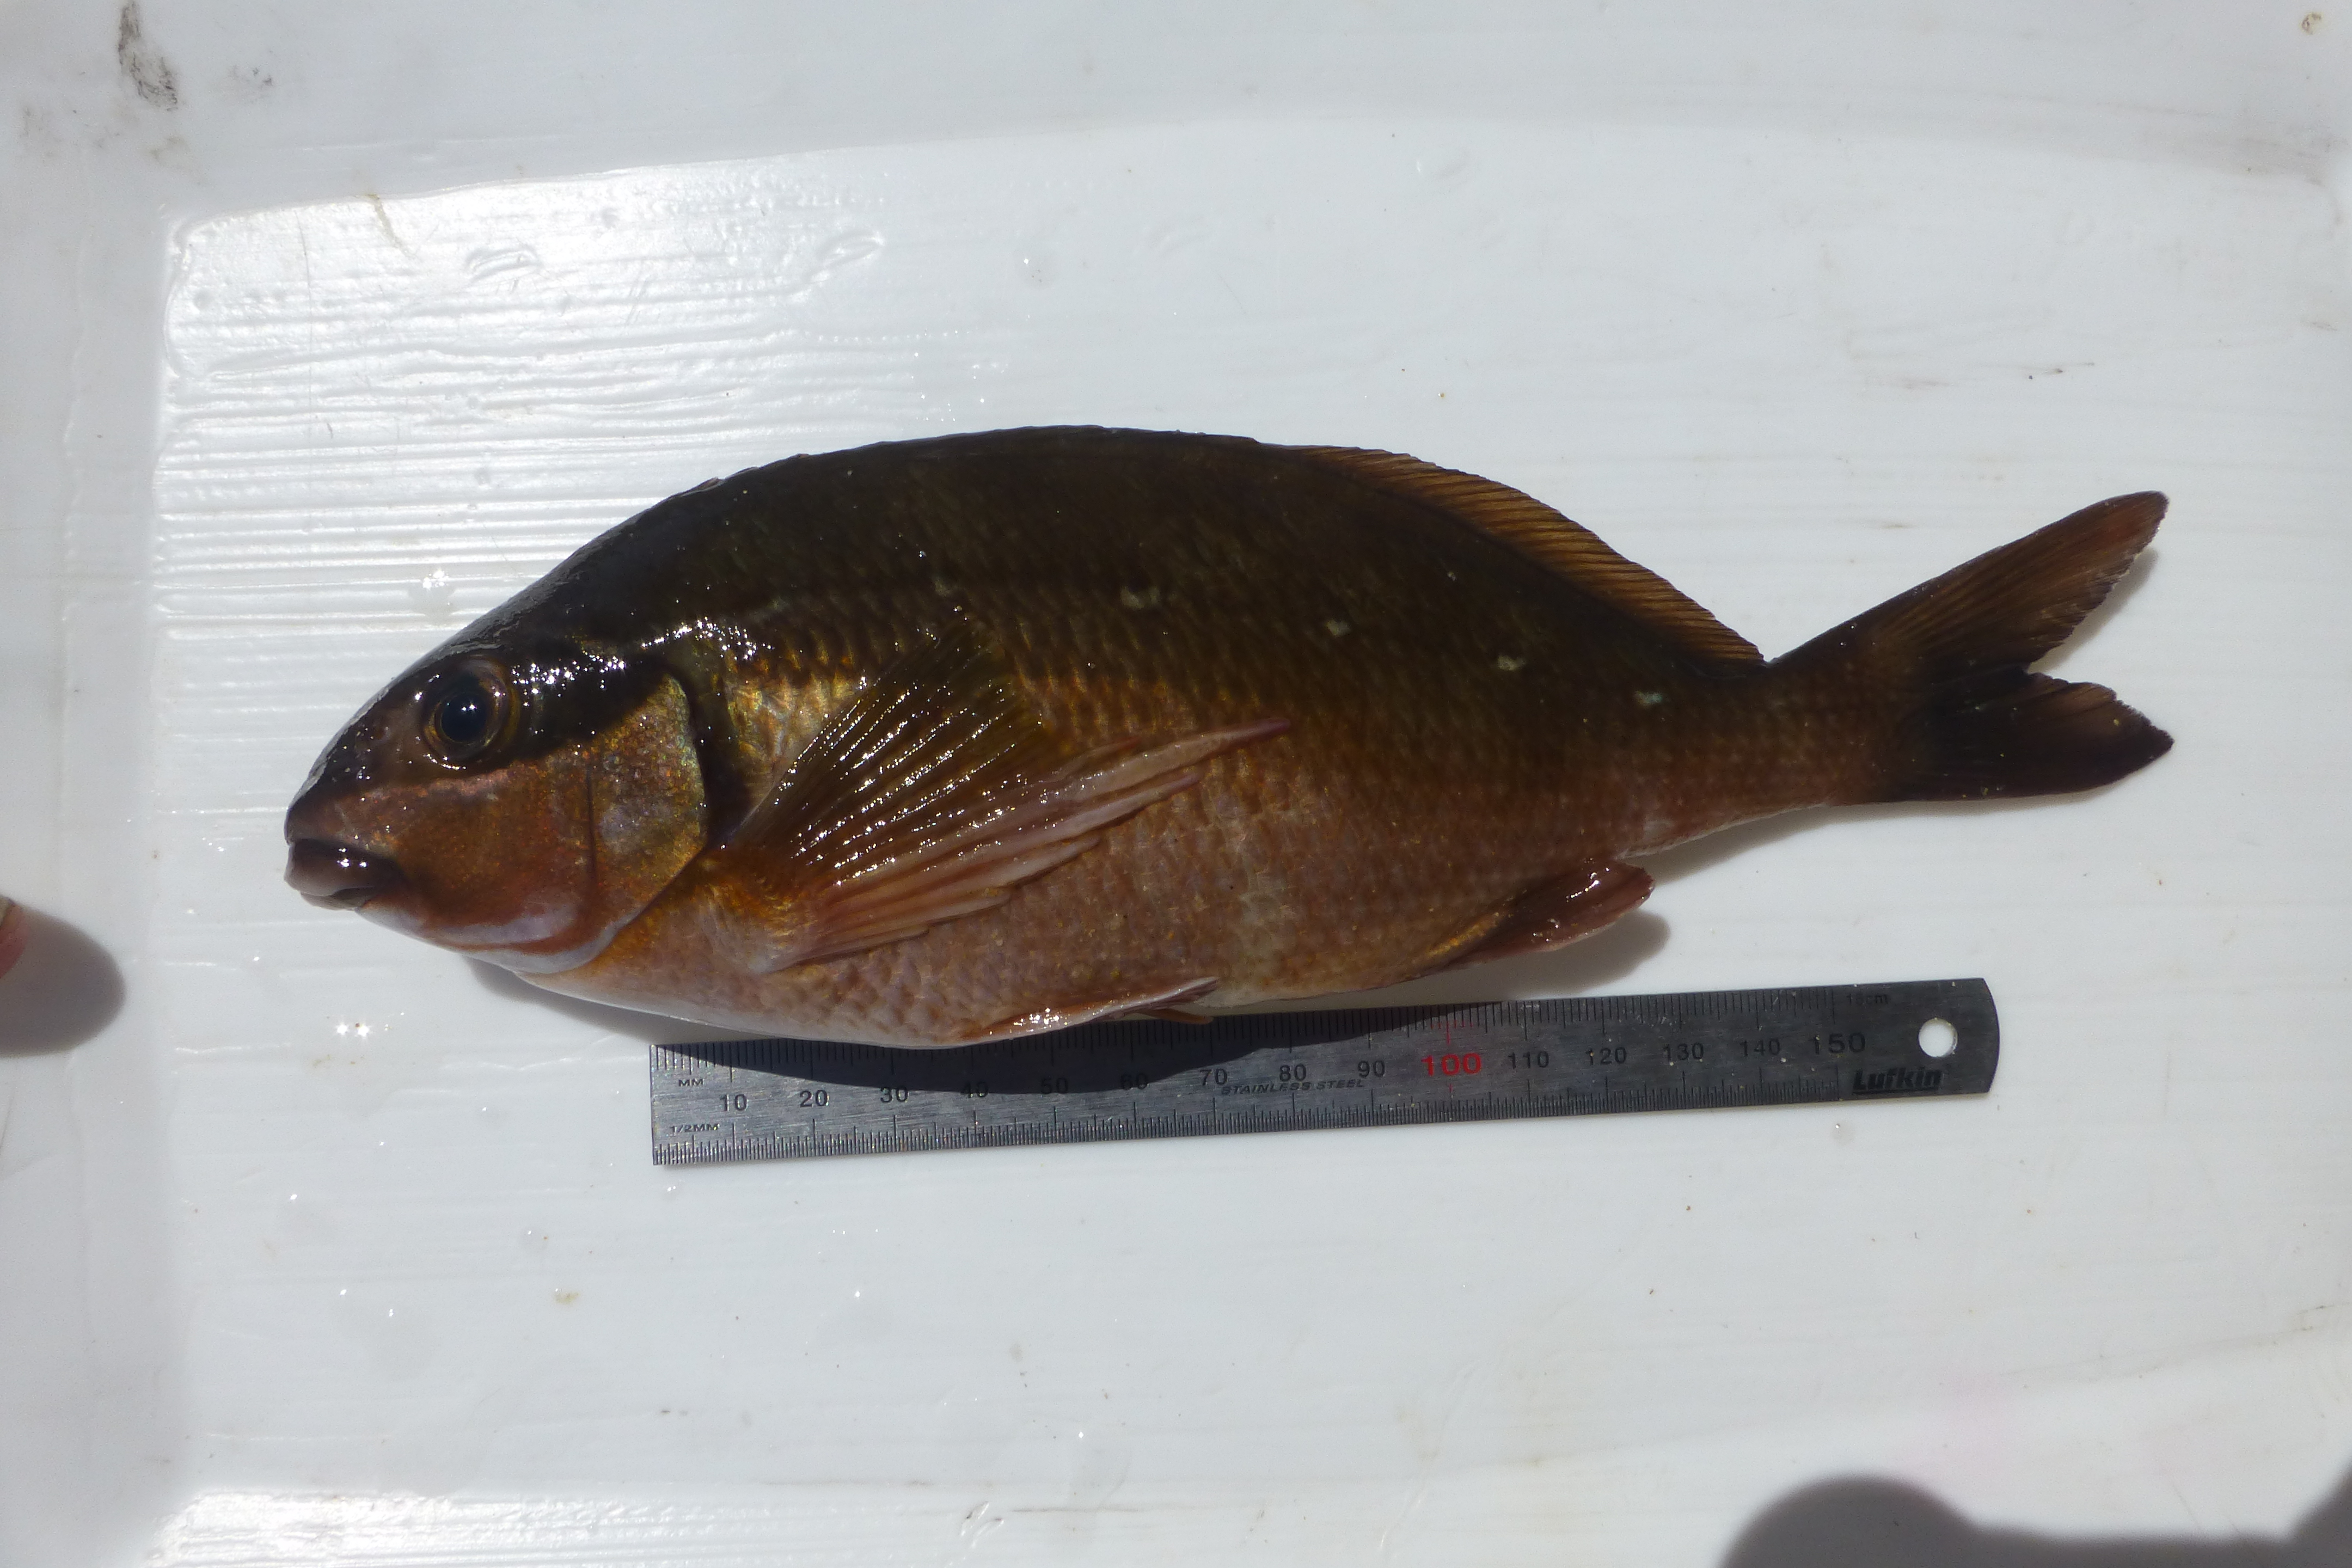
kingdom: Animalia
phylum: Chordata
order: Perciformes
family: Cheilodactylidae
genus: Chirodactylus
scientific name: Chirodactylus brachydactylus
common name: Butterfish
